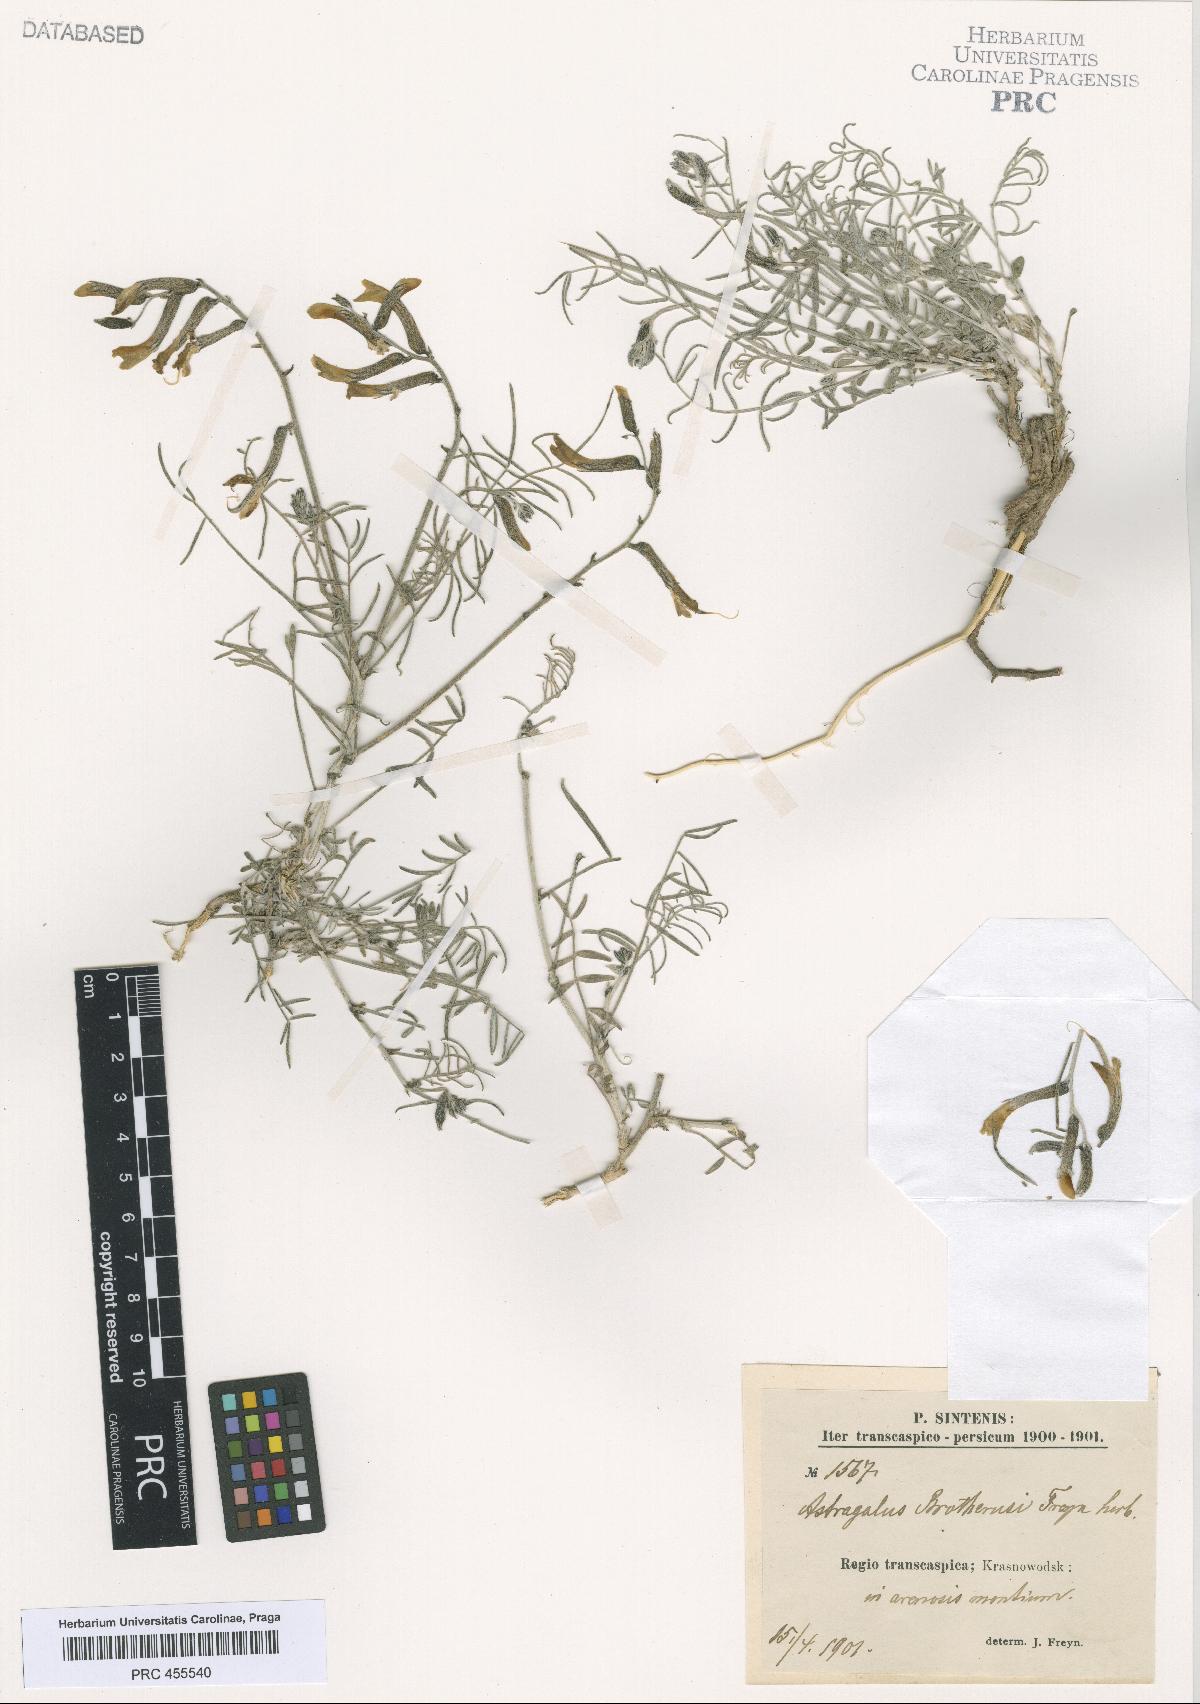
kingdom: Plantae
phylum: Tracheophyta
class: Magnoliopsida
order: Fabales
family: Fabaceae
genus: Astragalus
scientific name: Astragalus juratzkanus
